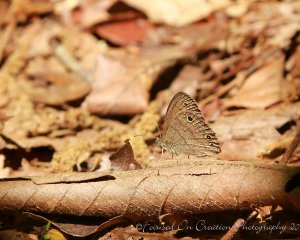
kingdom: Animalia
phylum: Arthropoda
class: Insecta
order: Lepidoptera
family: Nymphalidae
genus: Hermeuptychia
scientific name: Hermeuptychia hermes
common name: Carolina Satyr
